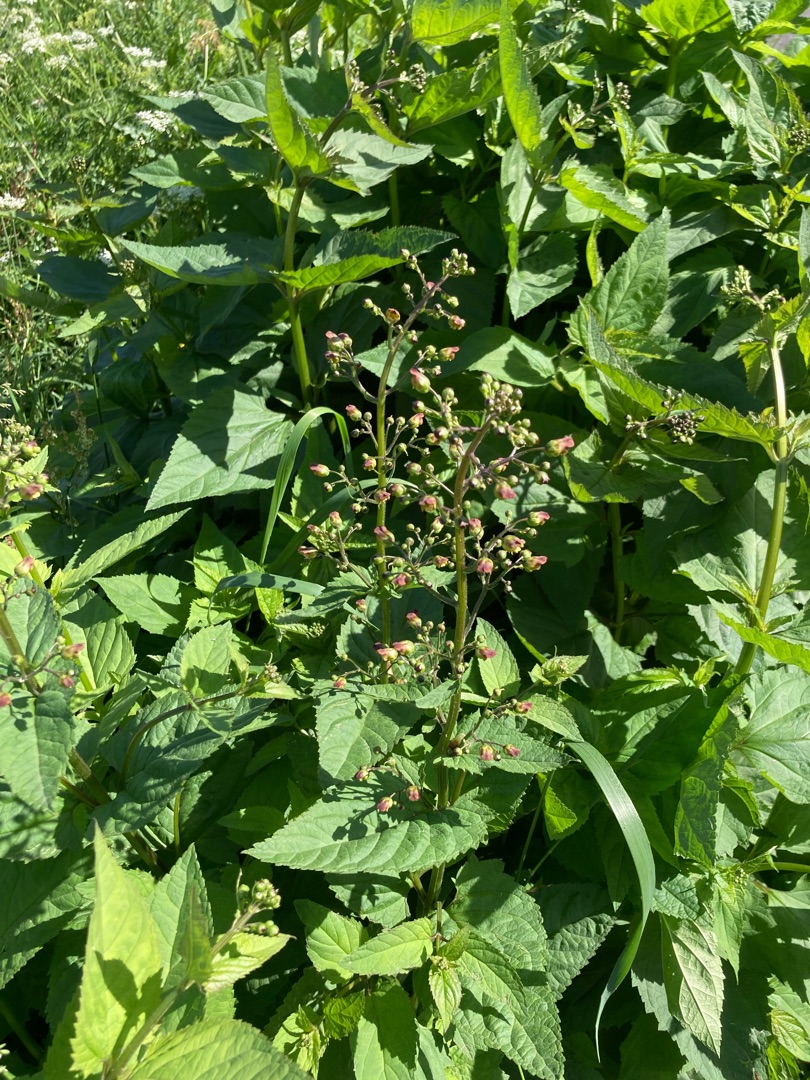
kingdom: Plantae
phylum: Tracheophyta
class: Magnoliopsida
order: Lamiales
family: Scrophulariaceae
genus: Scrophularia
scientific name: Scrophularia nodosa
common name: Knoldet brunrod
